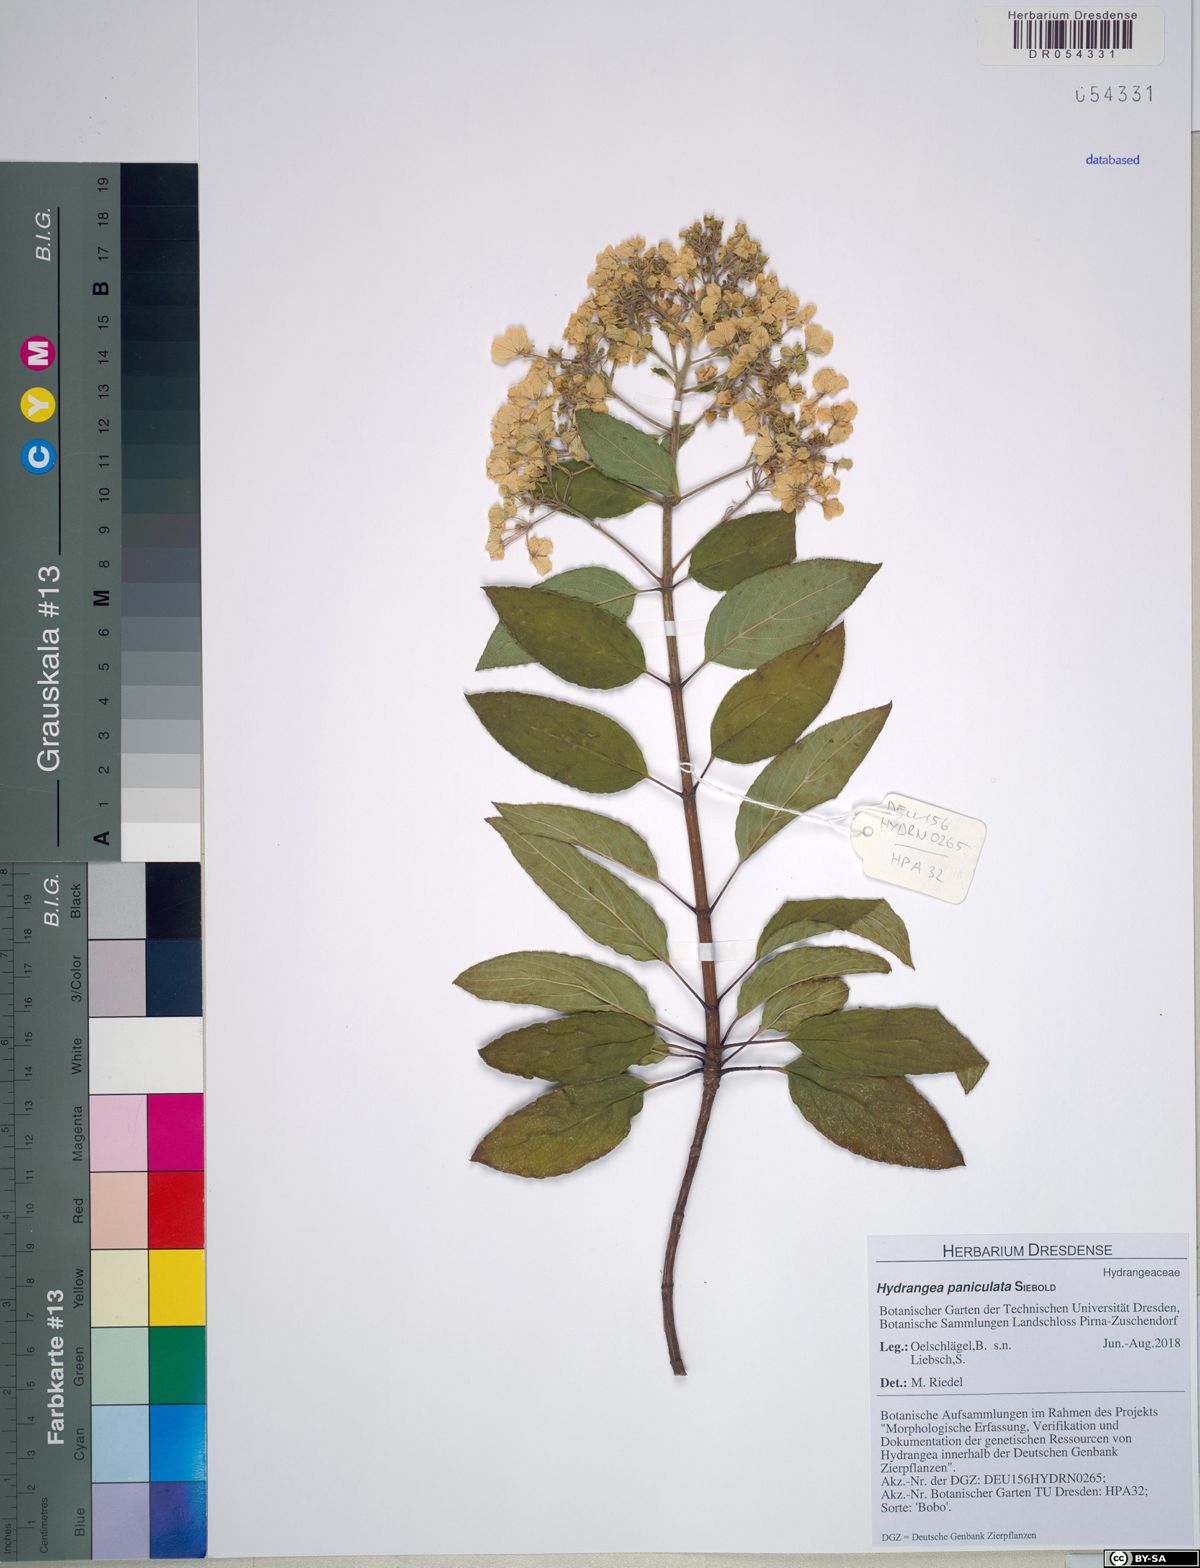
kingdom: Plantae
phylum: Tracheophyta
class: Magnoliopsida
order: Cornales
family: Hydrangeaceae
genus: Hydrangea
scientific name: Hydrangea paniculata
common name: Panicled hydrangea
